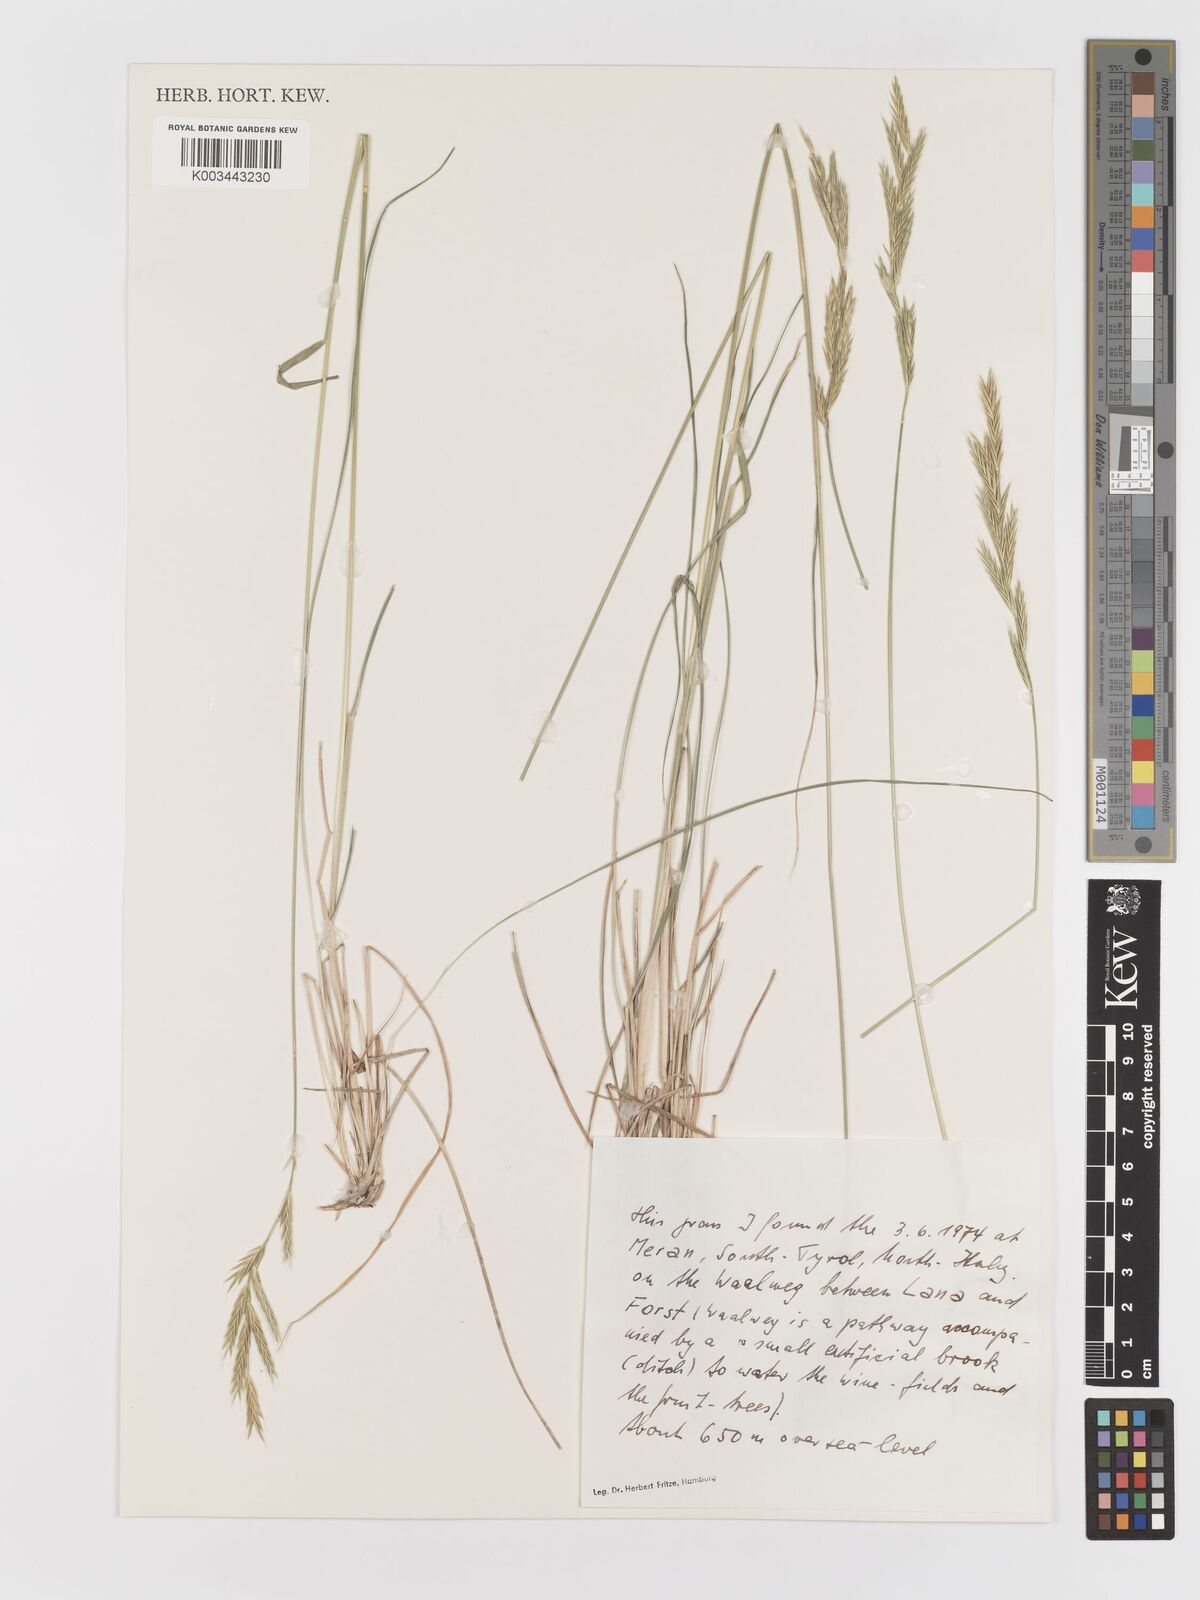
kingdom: Plantae
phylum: Tracheophyta
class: Liliopsida
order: Poales
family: Poaceae
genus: Bromus
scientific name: Bromus
